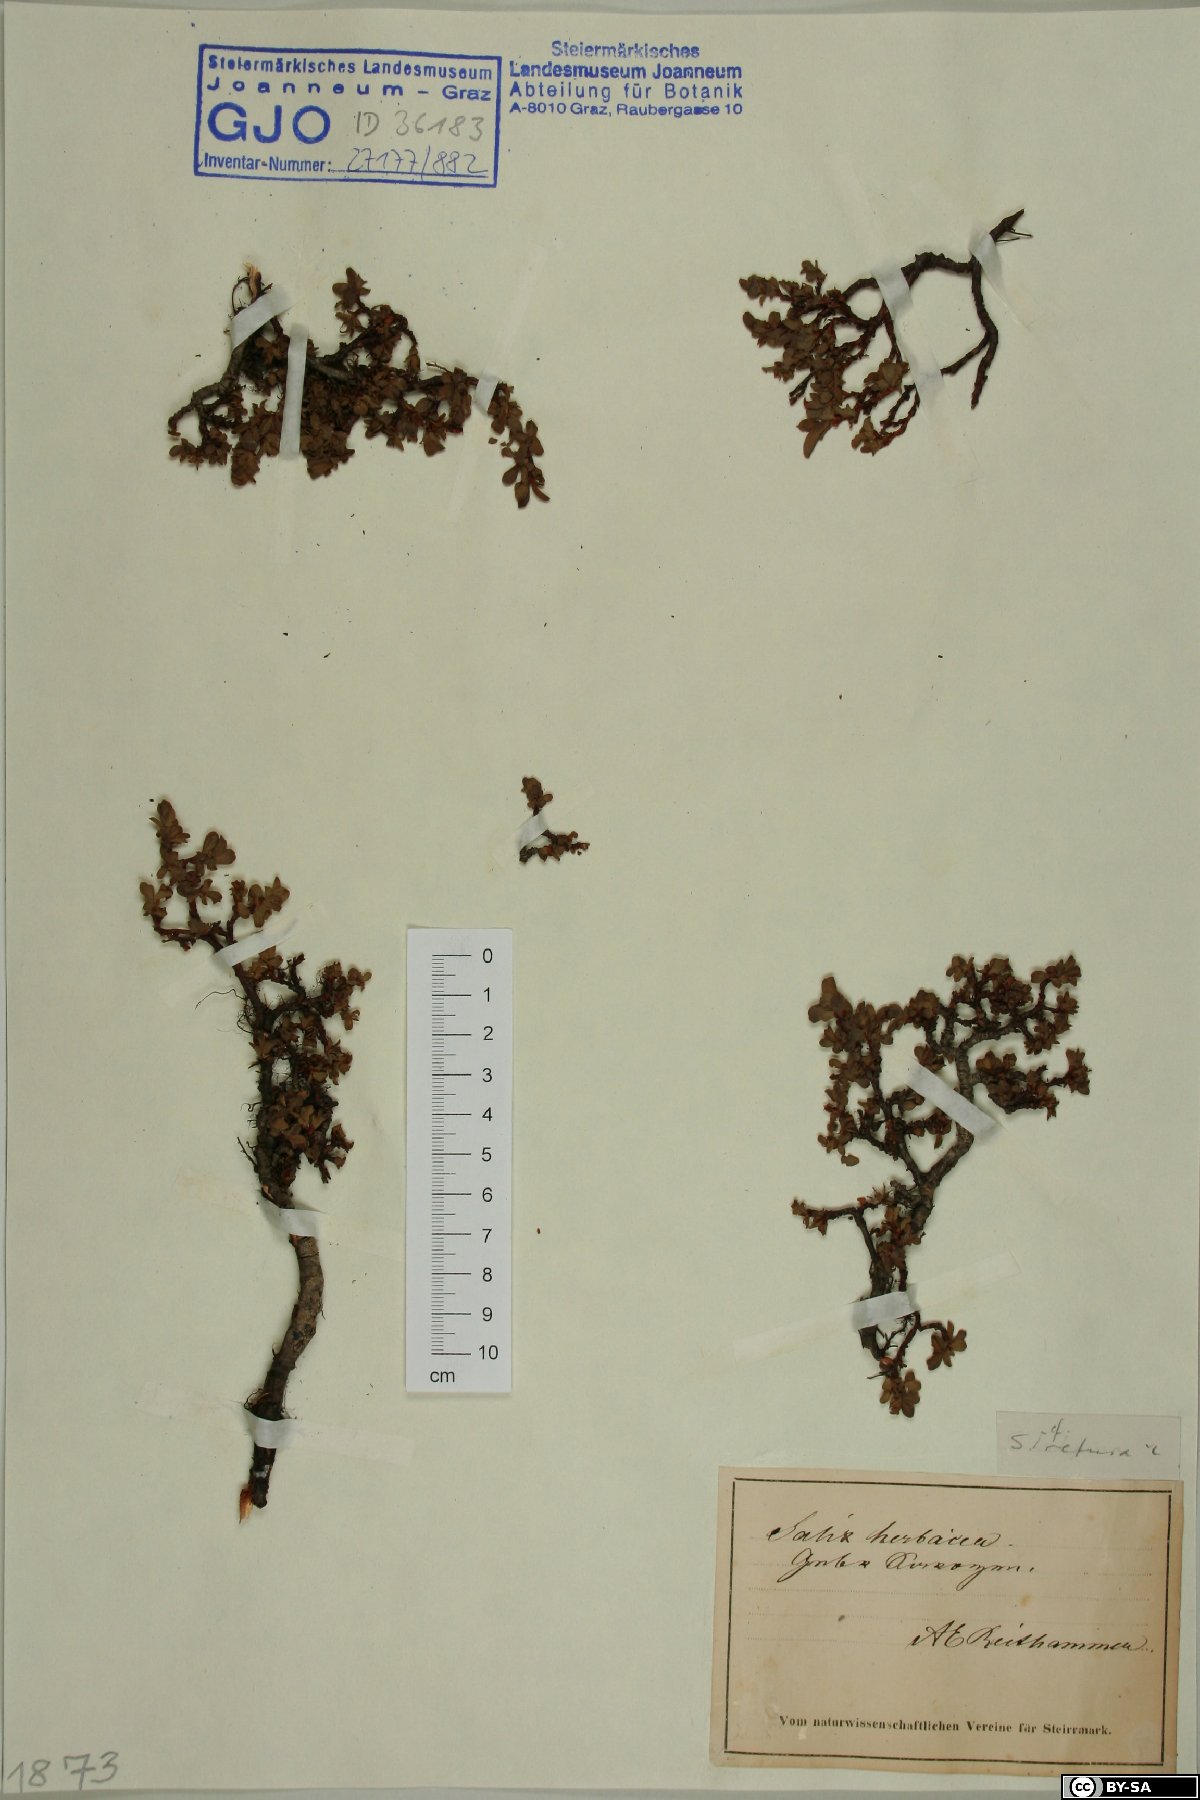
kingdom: Plantae
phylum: Tracheophyta
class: Magnoliopsida
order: Malpighiales
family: Salicaceae
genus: Salix
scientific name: Salix retusa
